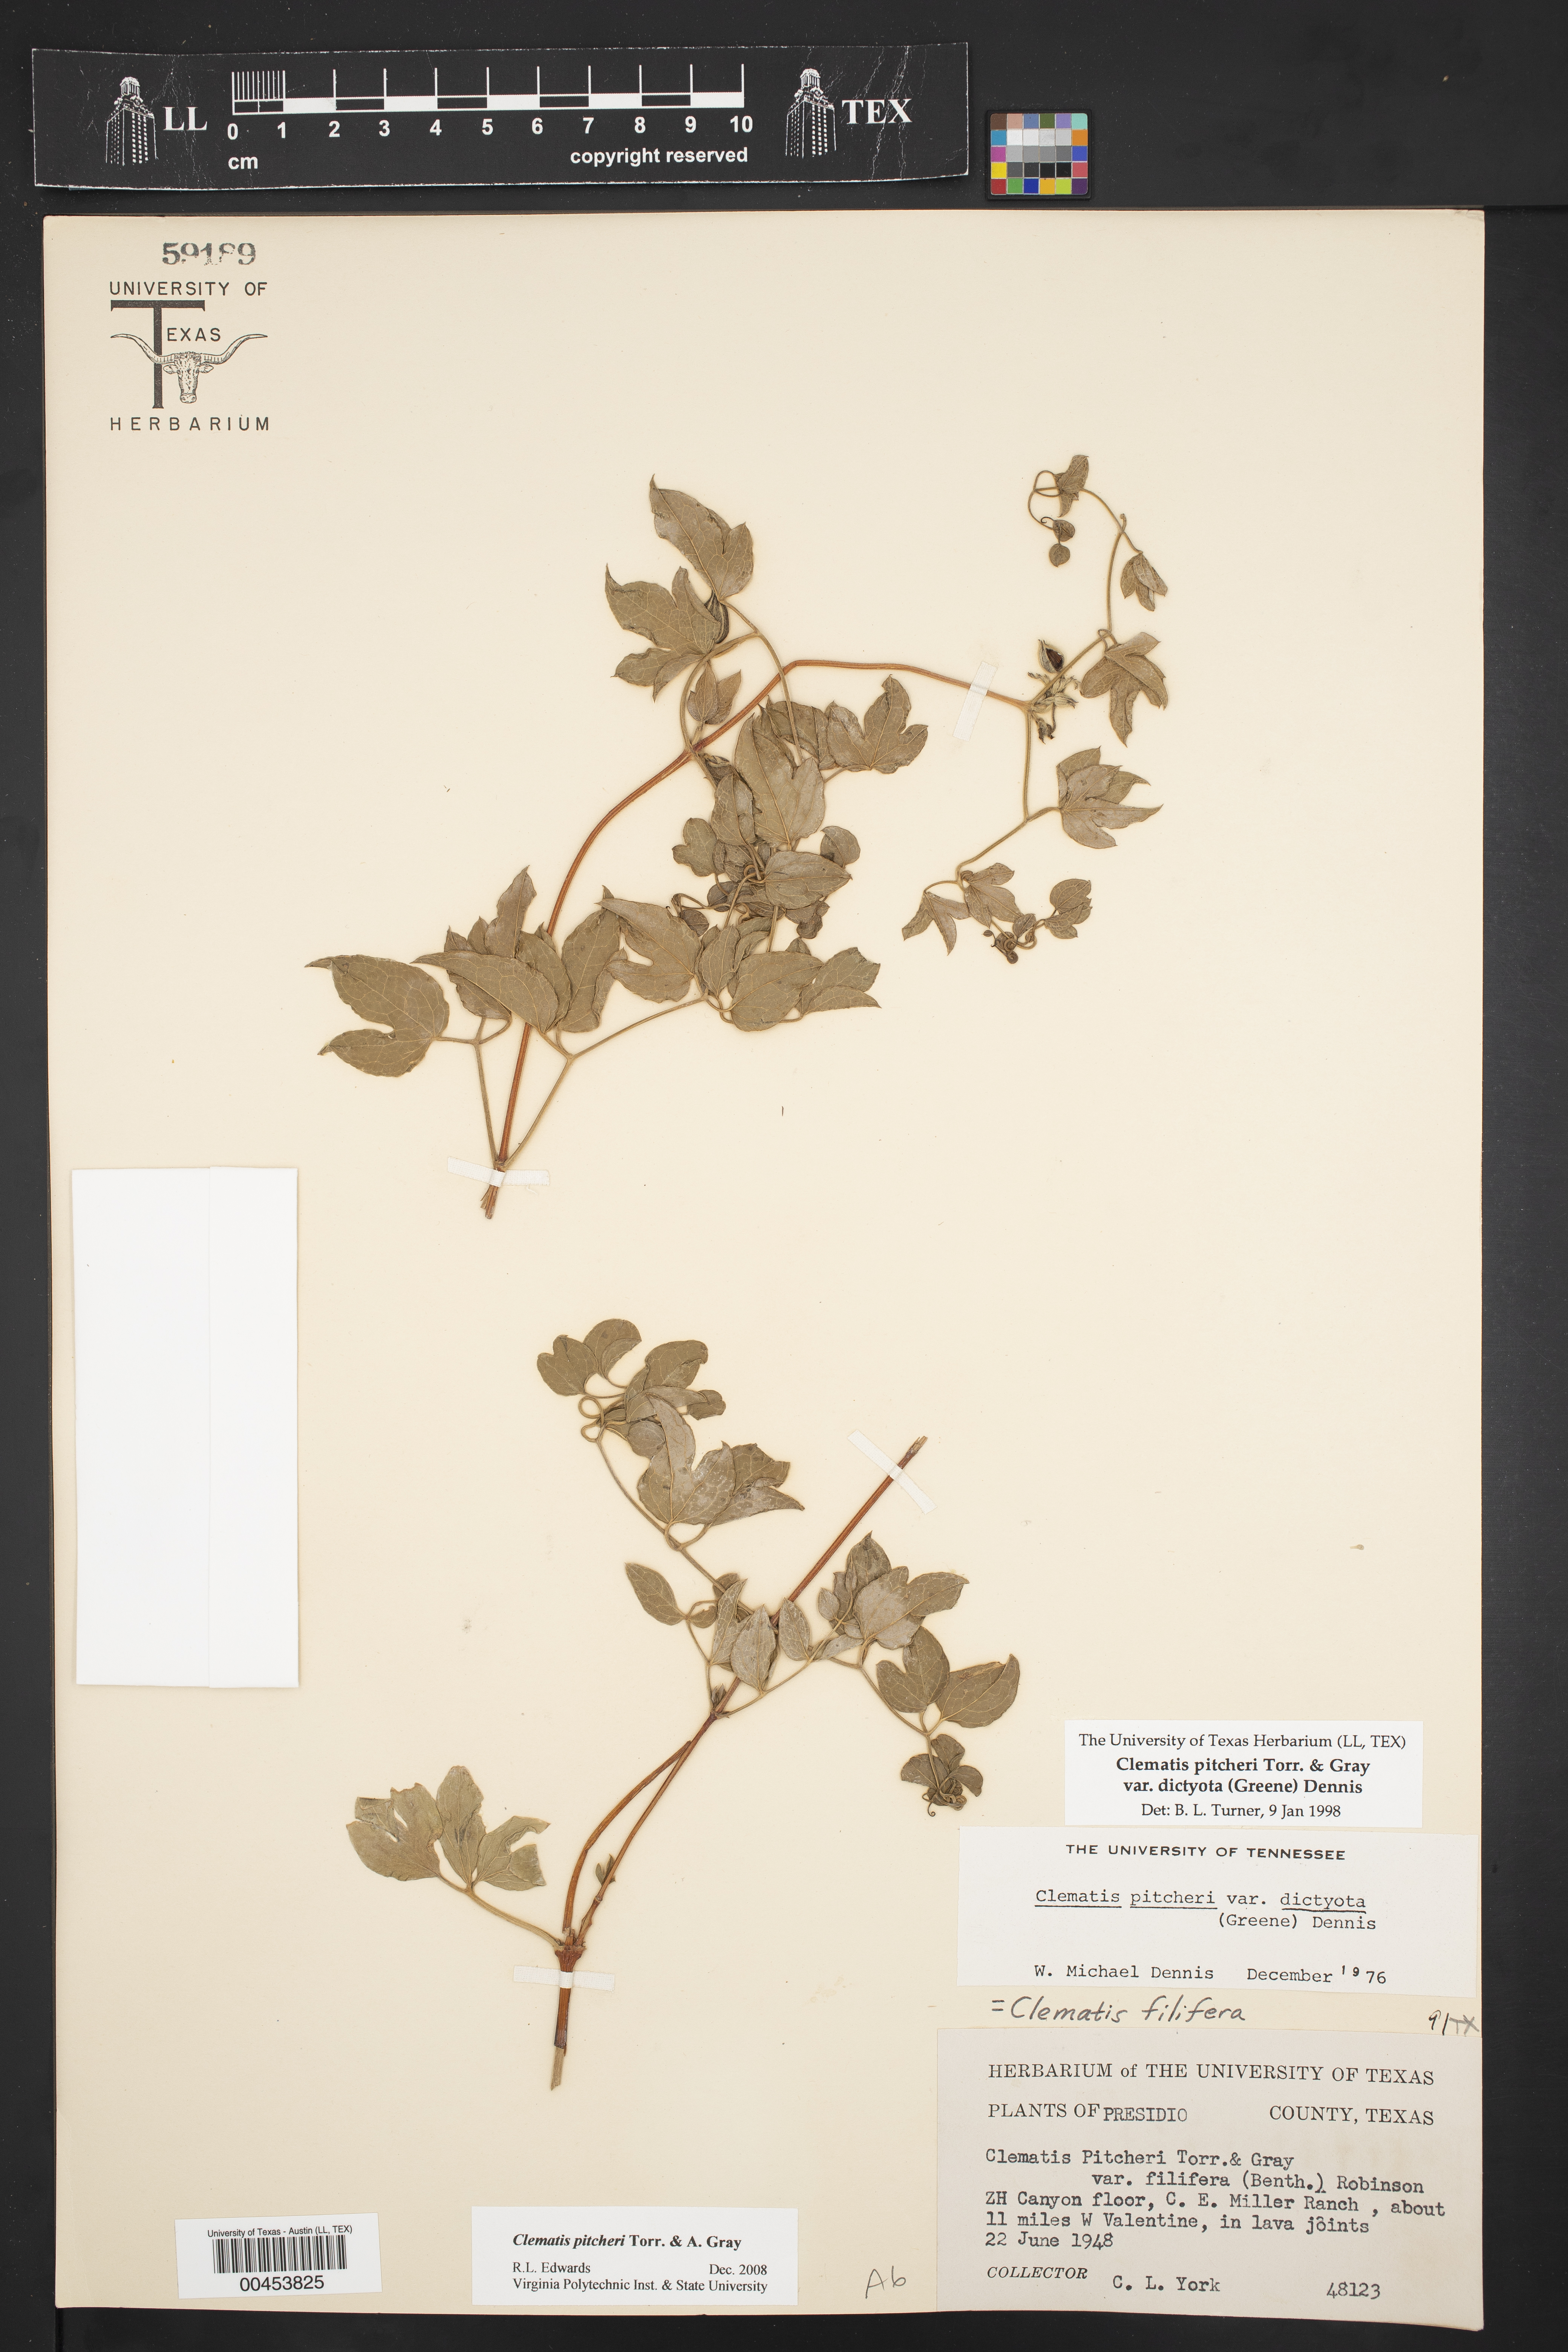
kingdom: Plantae
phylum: Tracheophyta
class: Magnoliopsida
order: Ranunculales
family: Ranunculaceae
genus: Clematis
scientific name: Clematis pitcheri
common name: Bellflower clematis
